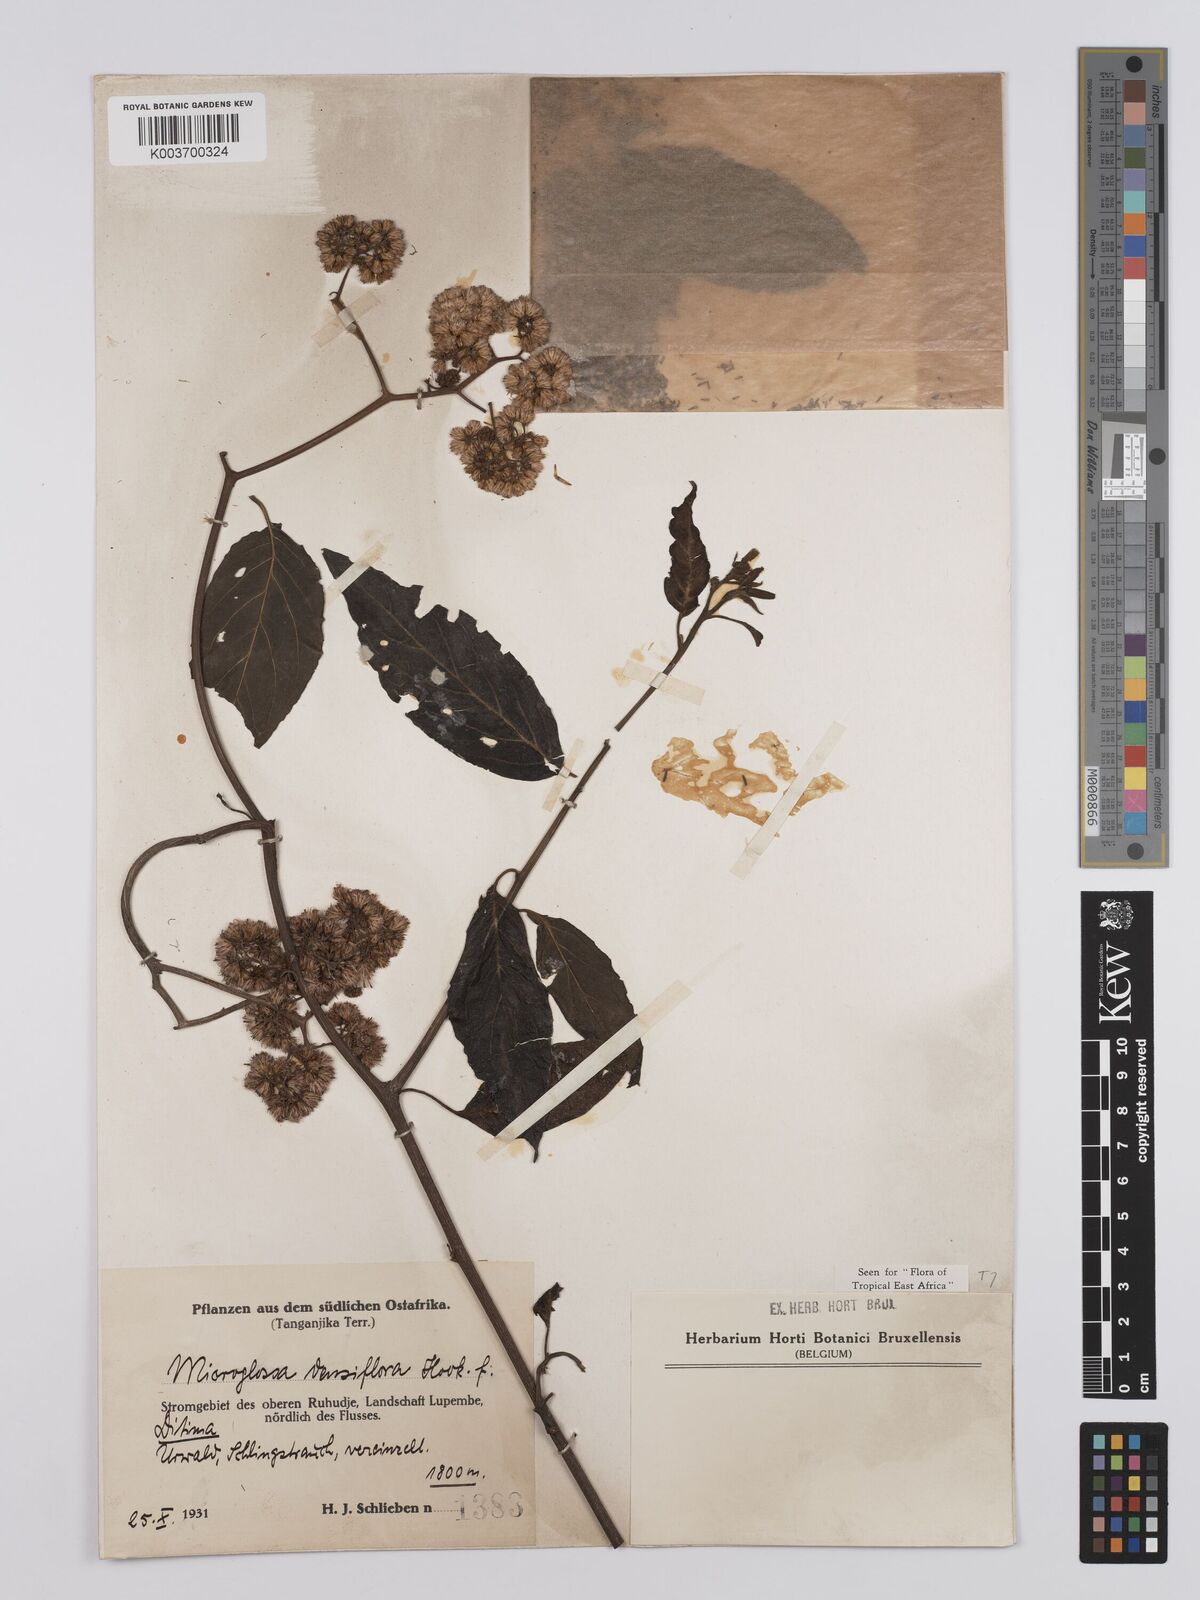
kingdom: Plantae
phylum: Tracheophyta
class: Magnoliopsida
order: Asterales
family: Asteraceae
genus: Microglossa
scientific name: Microglossa densiflora
